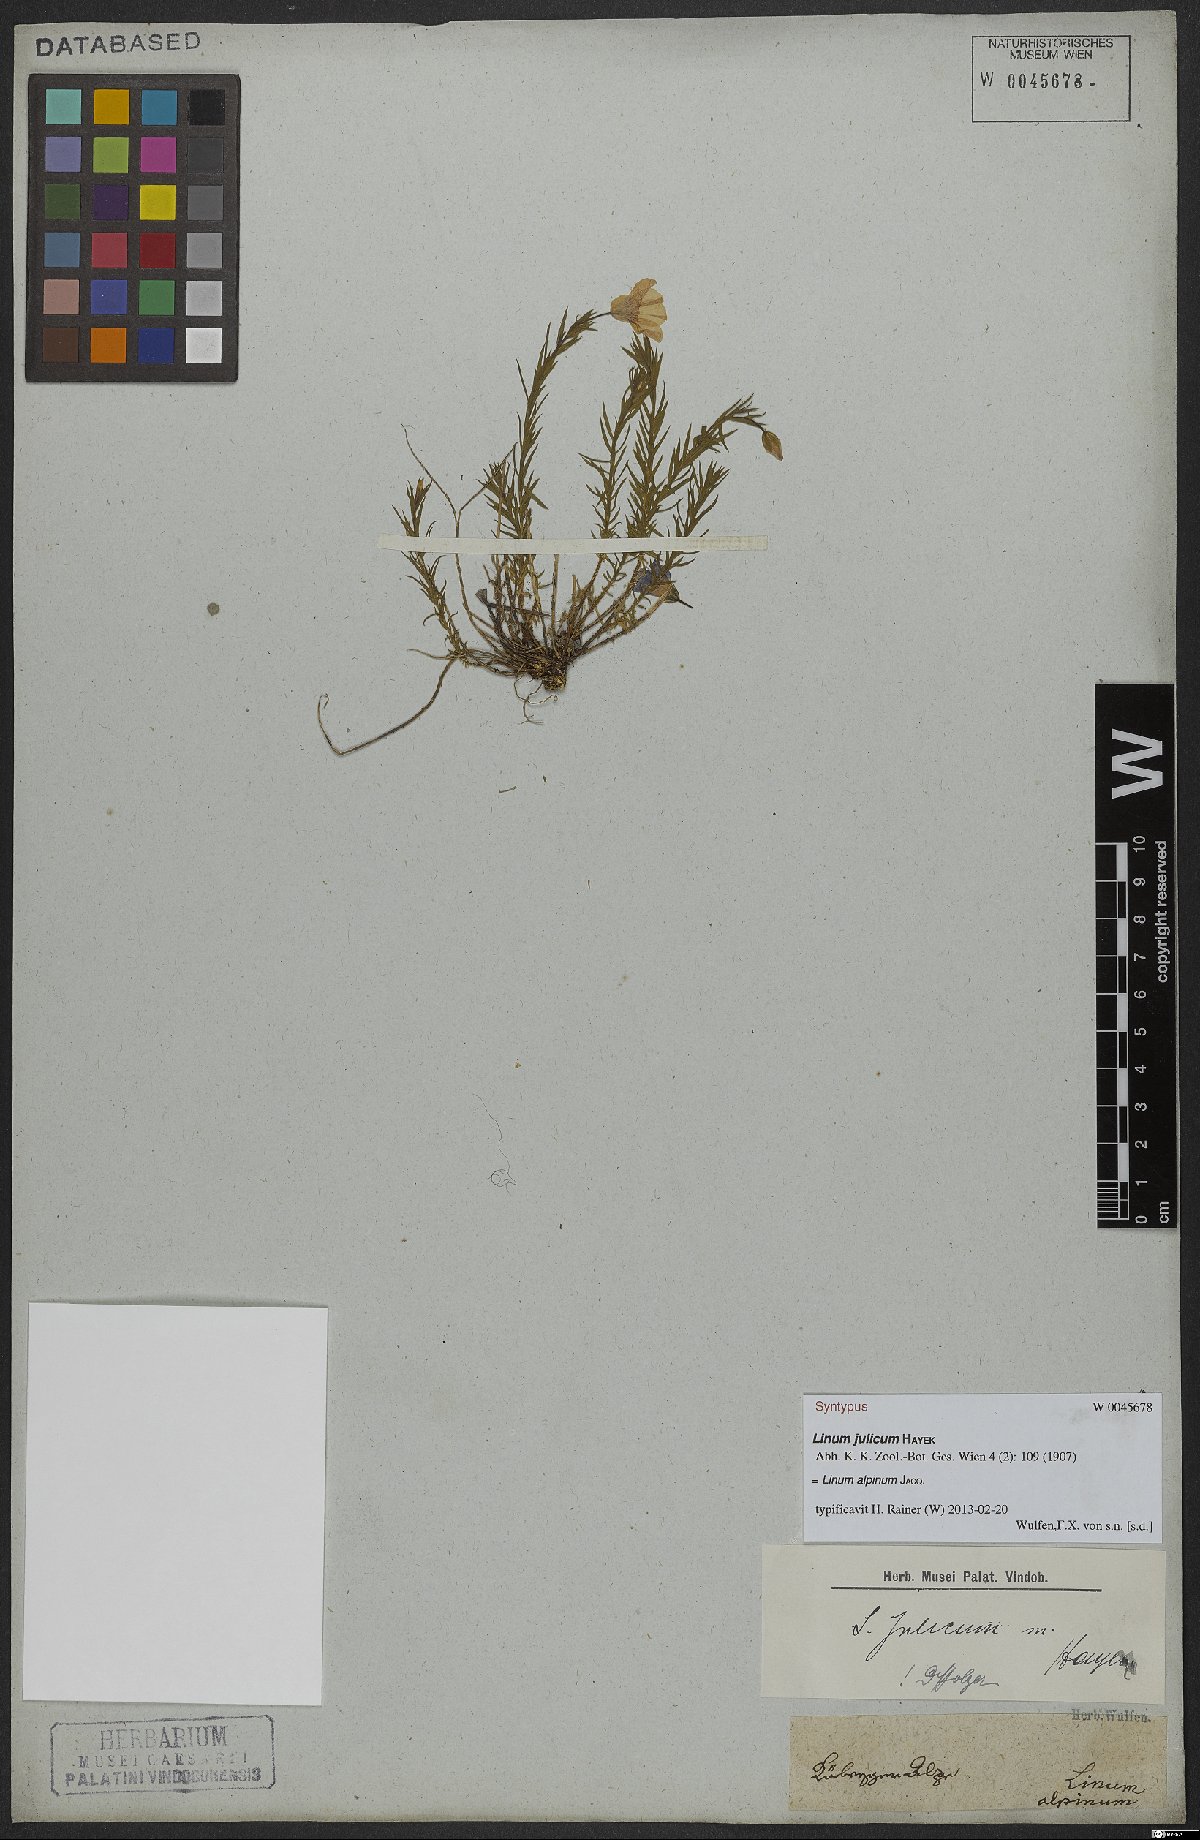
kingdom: Plantae
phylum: Tracheophyta
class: Magnoliopsida
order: Malpighiales
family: Linaceae
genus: Linum
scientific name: Linum alpinum
